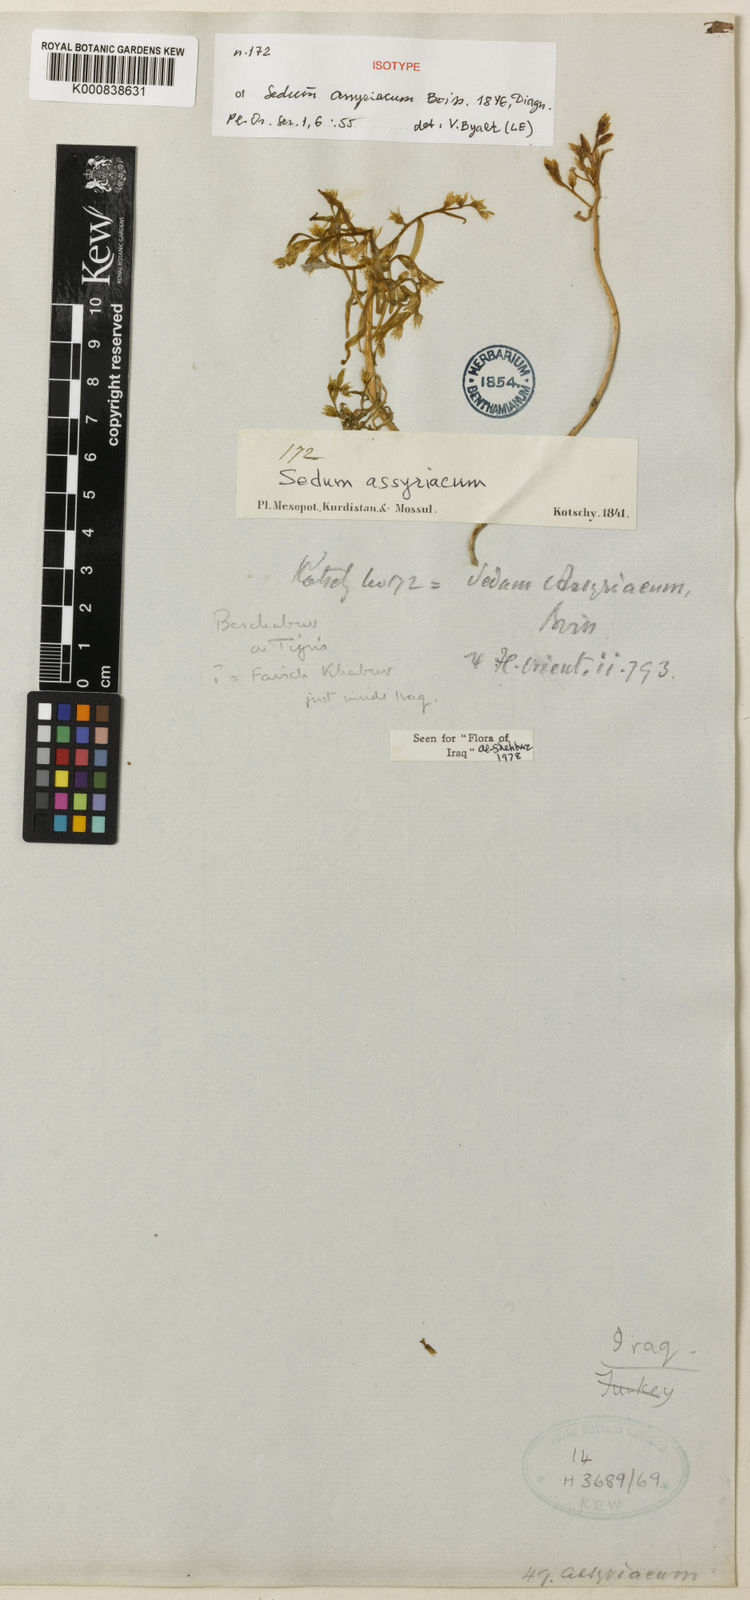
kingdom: Plantae
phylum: Tracheophyta
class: Magnoliopsida
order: Saxifragales
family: Crassulaceae
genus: Sedum
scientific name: Sedum assyriacum
